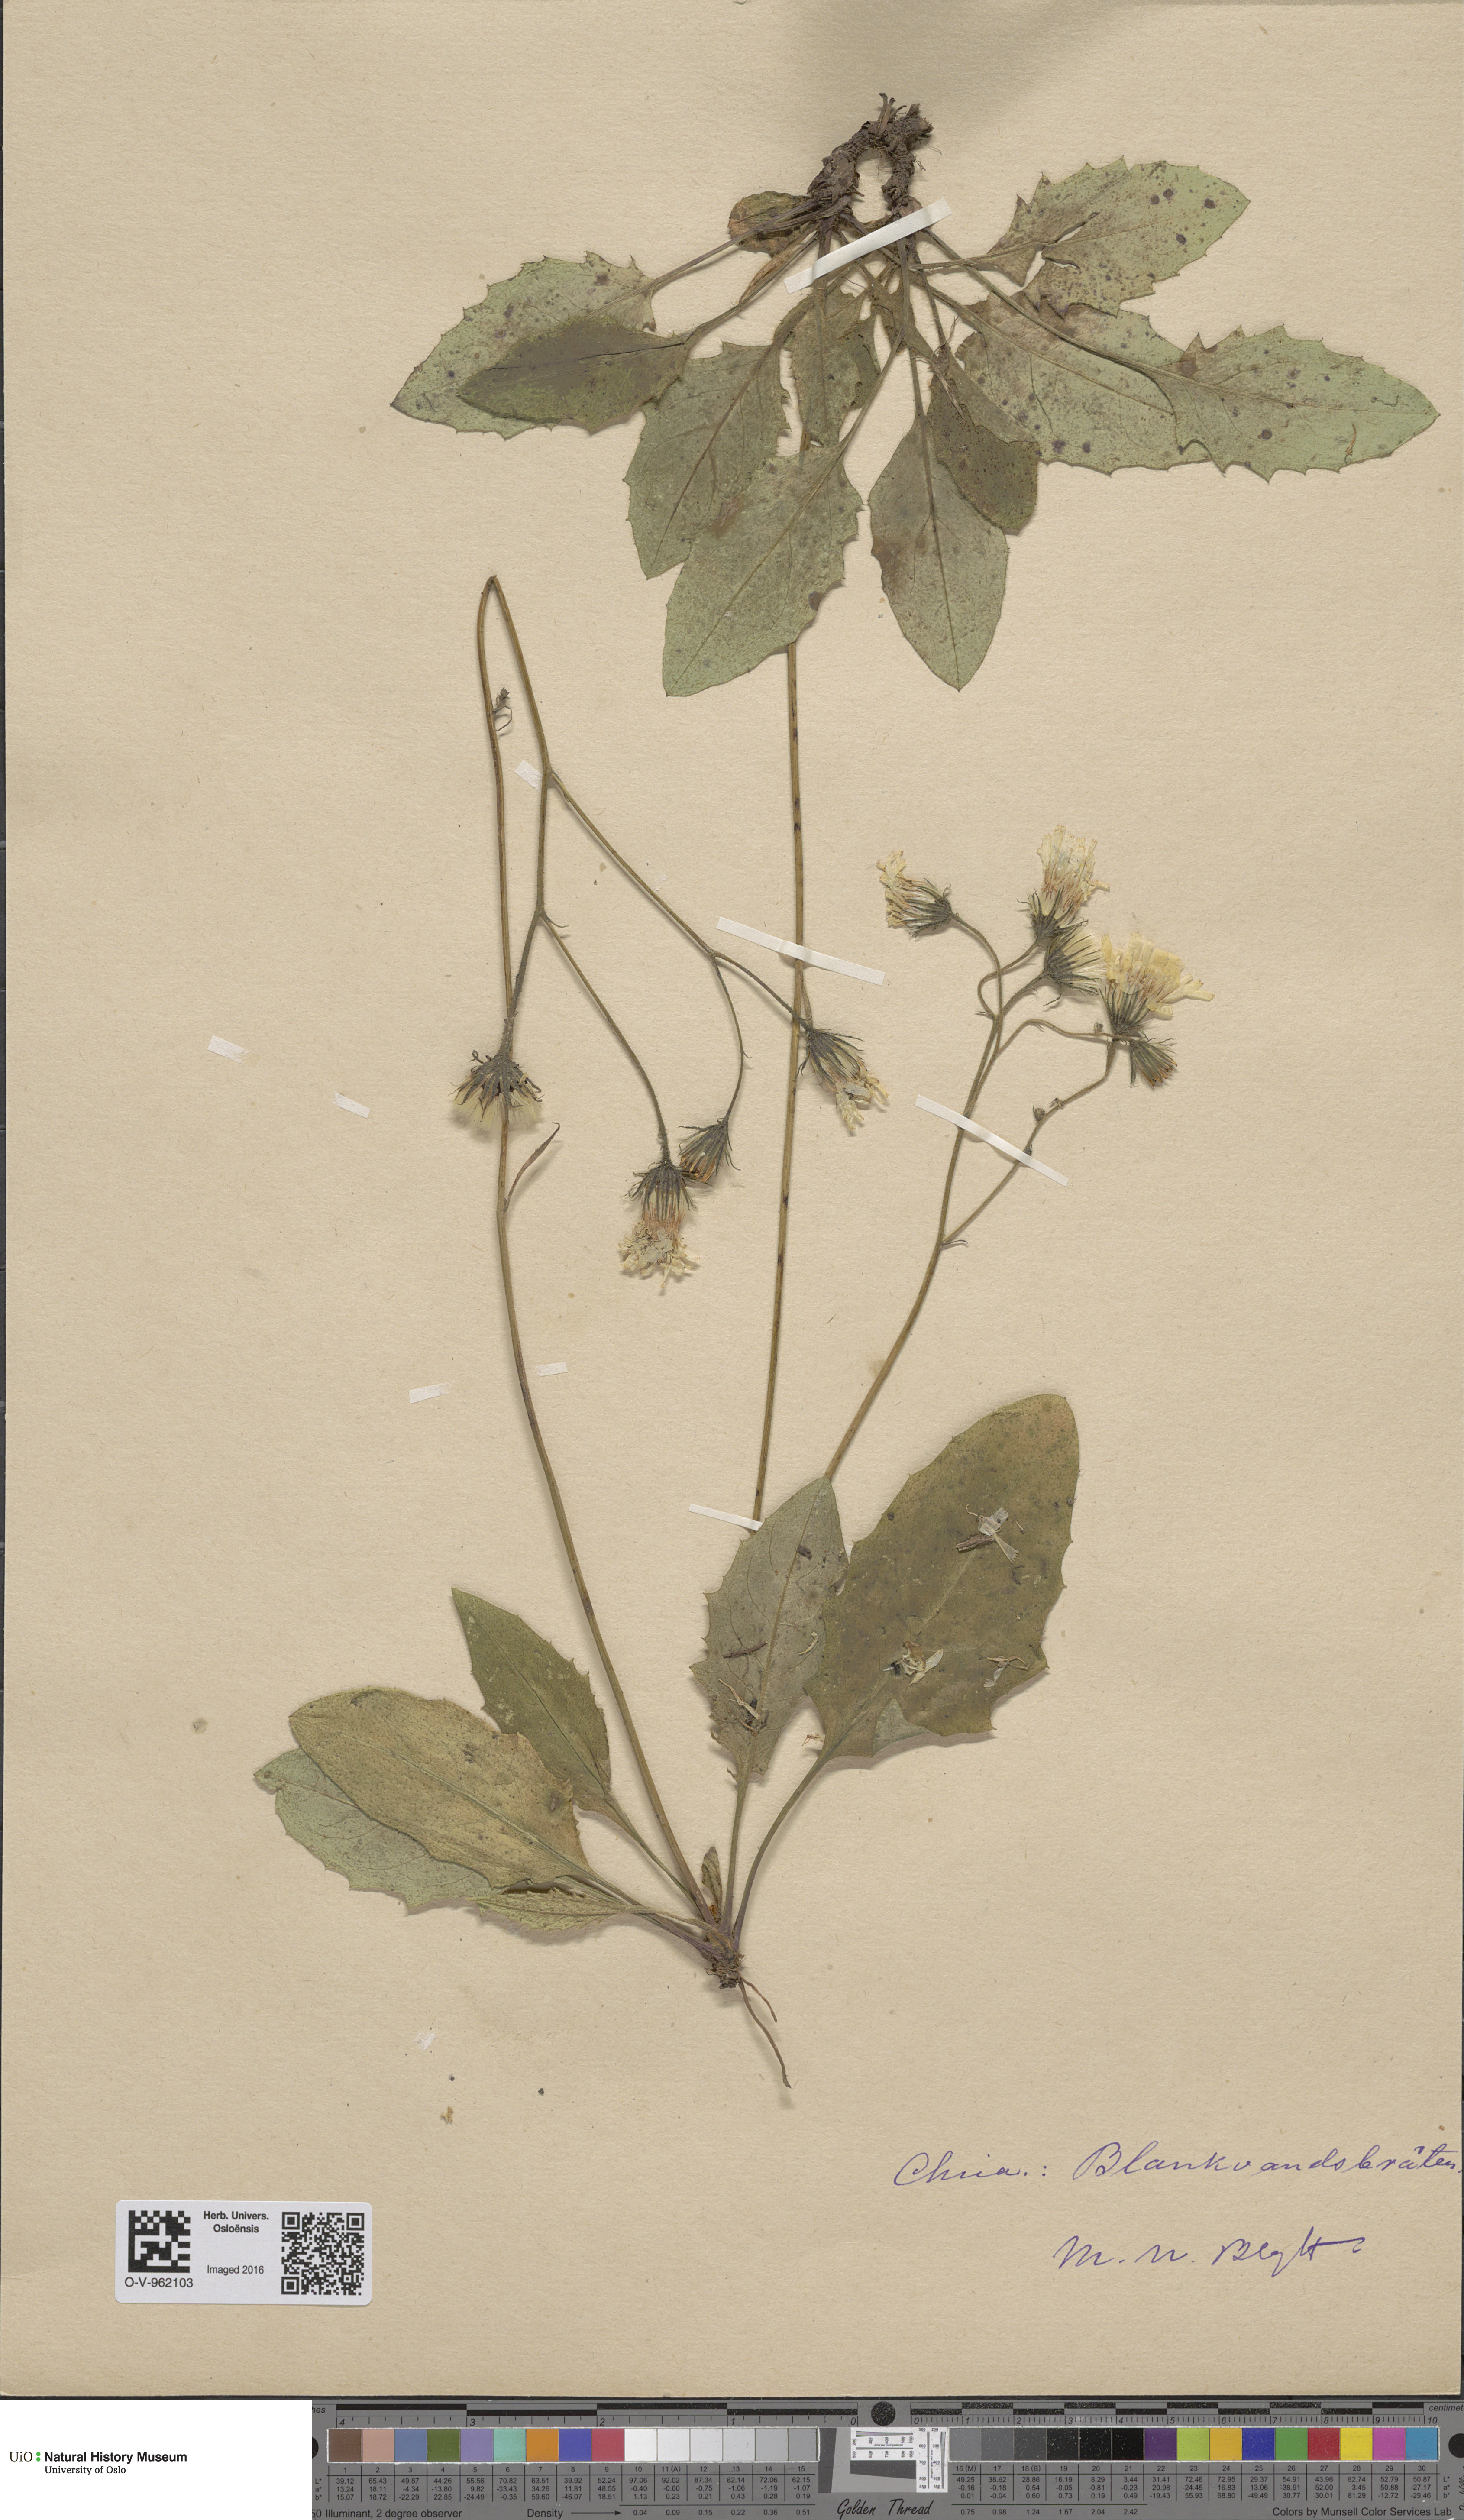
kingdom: Plantae
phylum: Tracheophyta
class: Magnoliopsida
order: Asterales
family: Asteraceae
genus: Hieracium
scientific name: Hieracium
